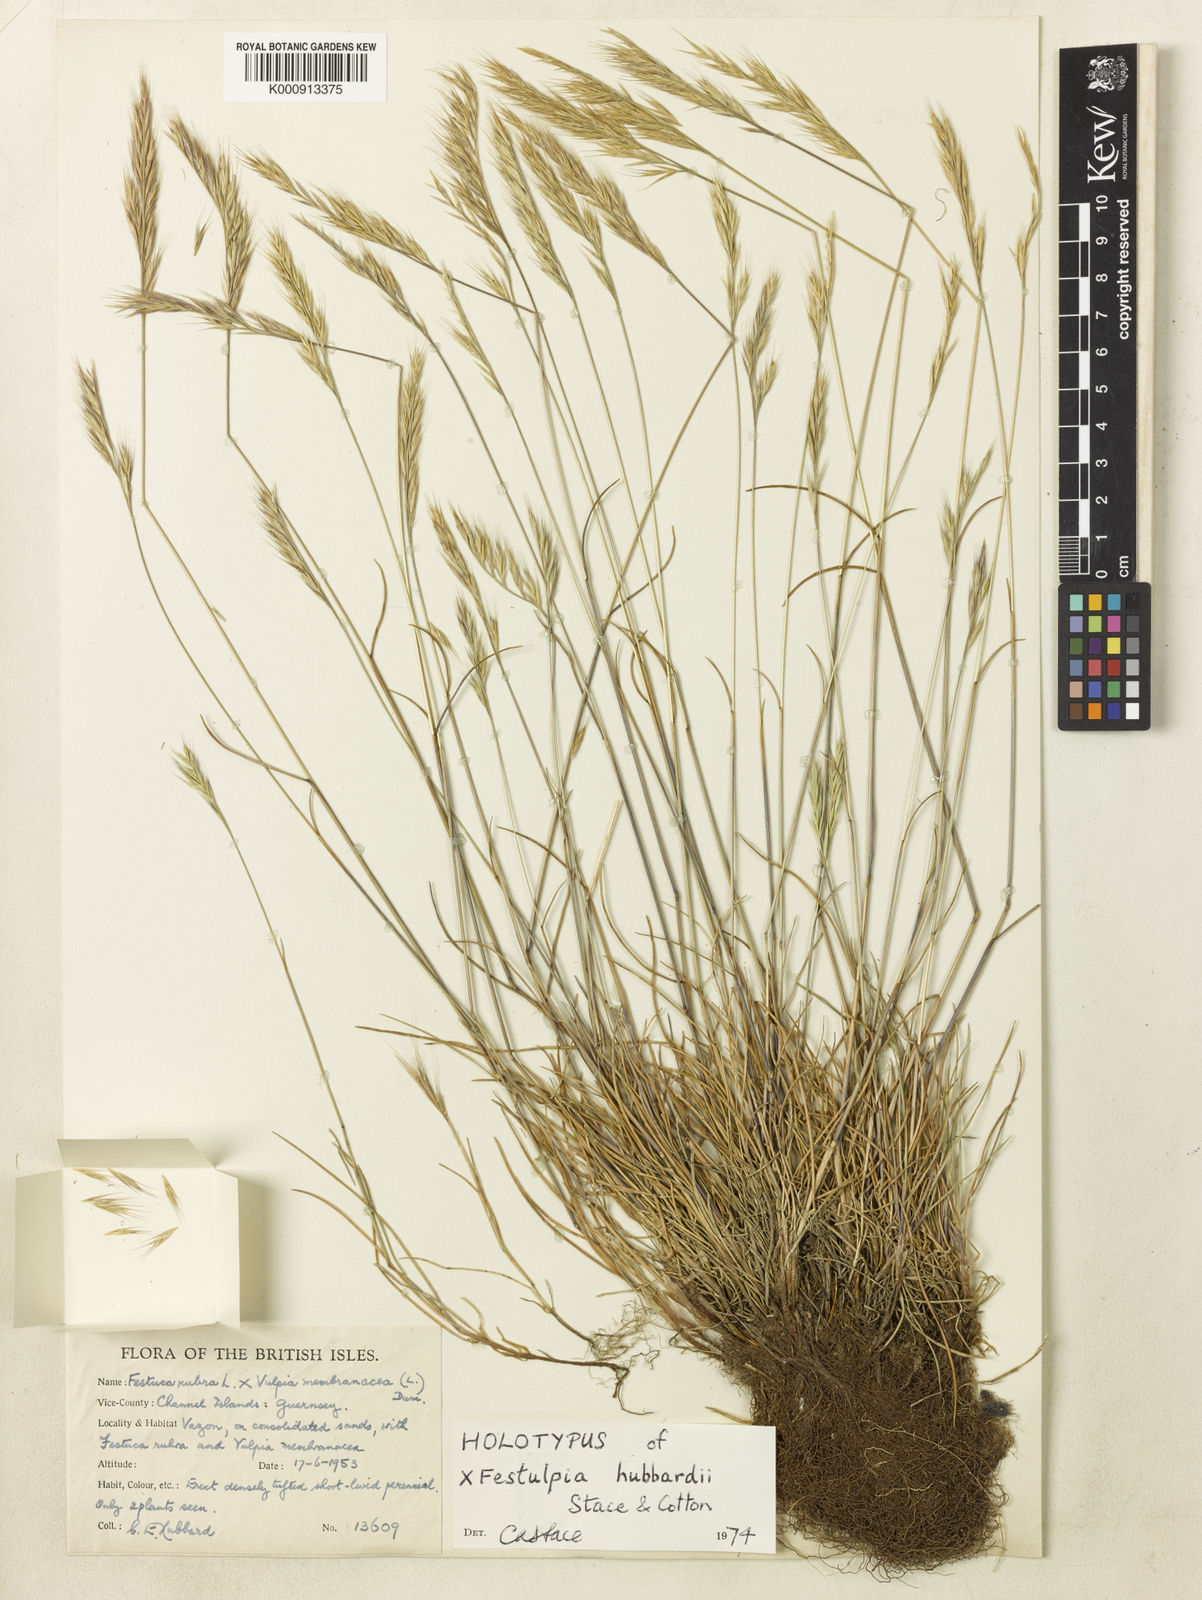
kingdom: Plantae
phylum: Tracheophyta
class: Liliopsida
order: Poales
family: Poaceae
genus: Festuca
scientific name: Festuca
